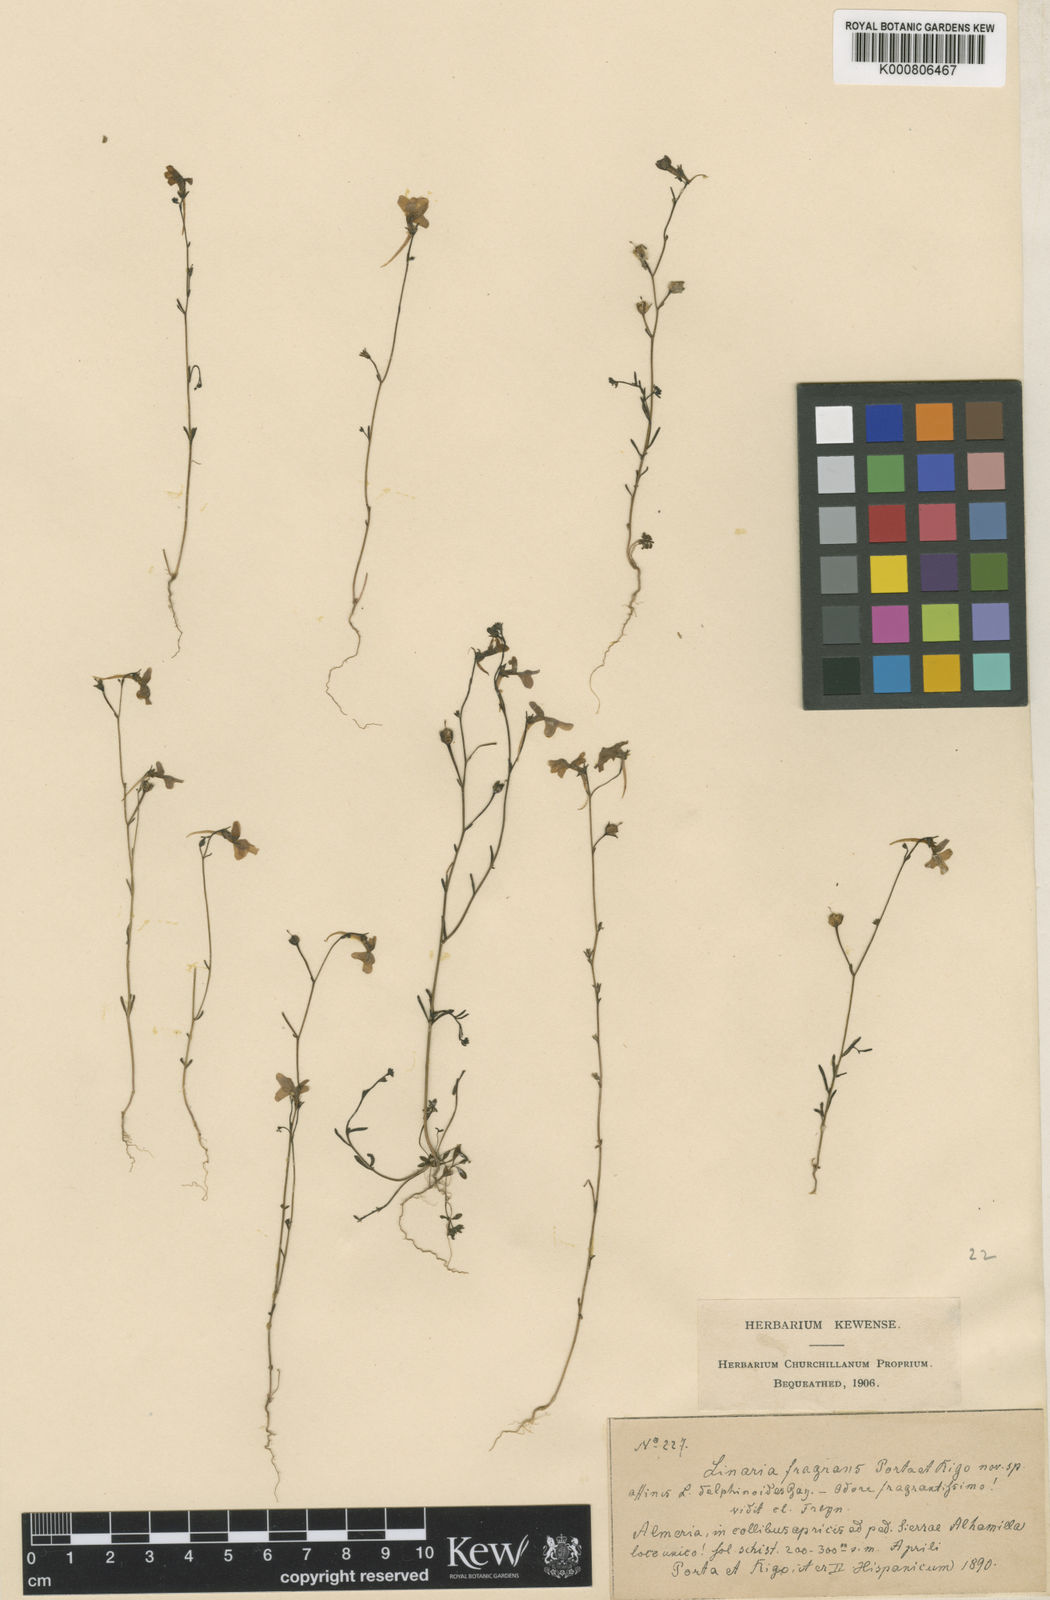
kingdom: Plantae
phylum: Tracheophyta
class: Magnoliopsida
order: Lamiales
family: Plantaginaceae
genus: Linaria
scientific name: Linaria nigricans
